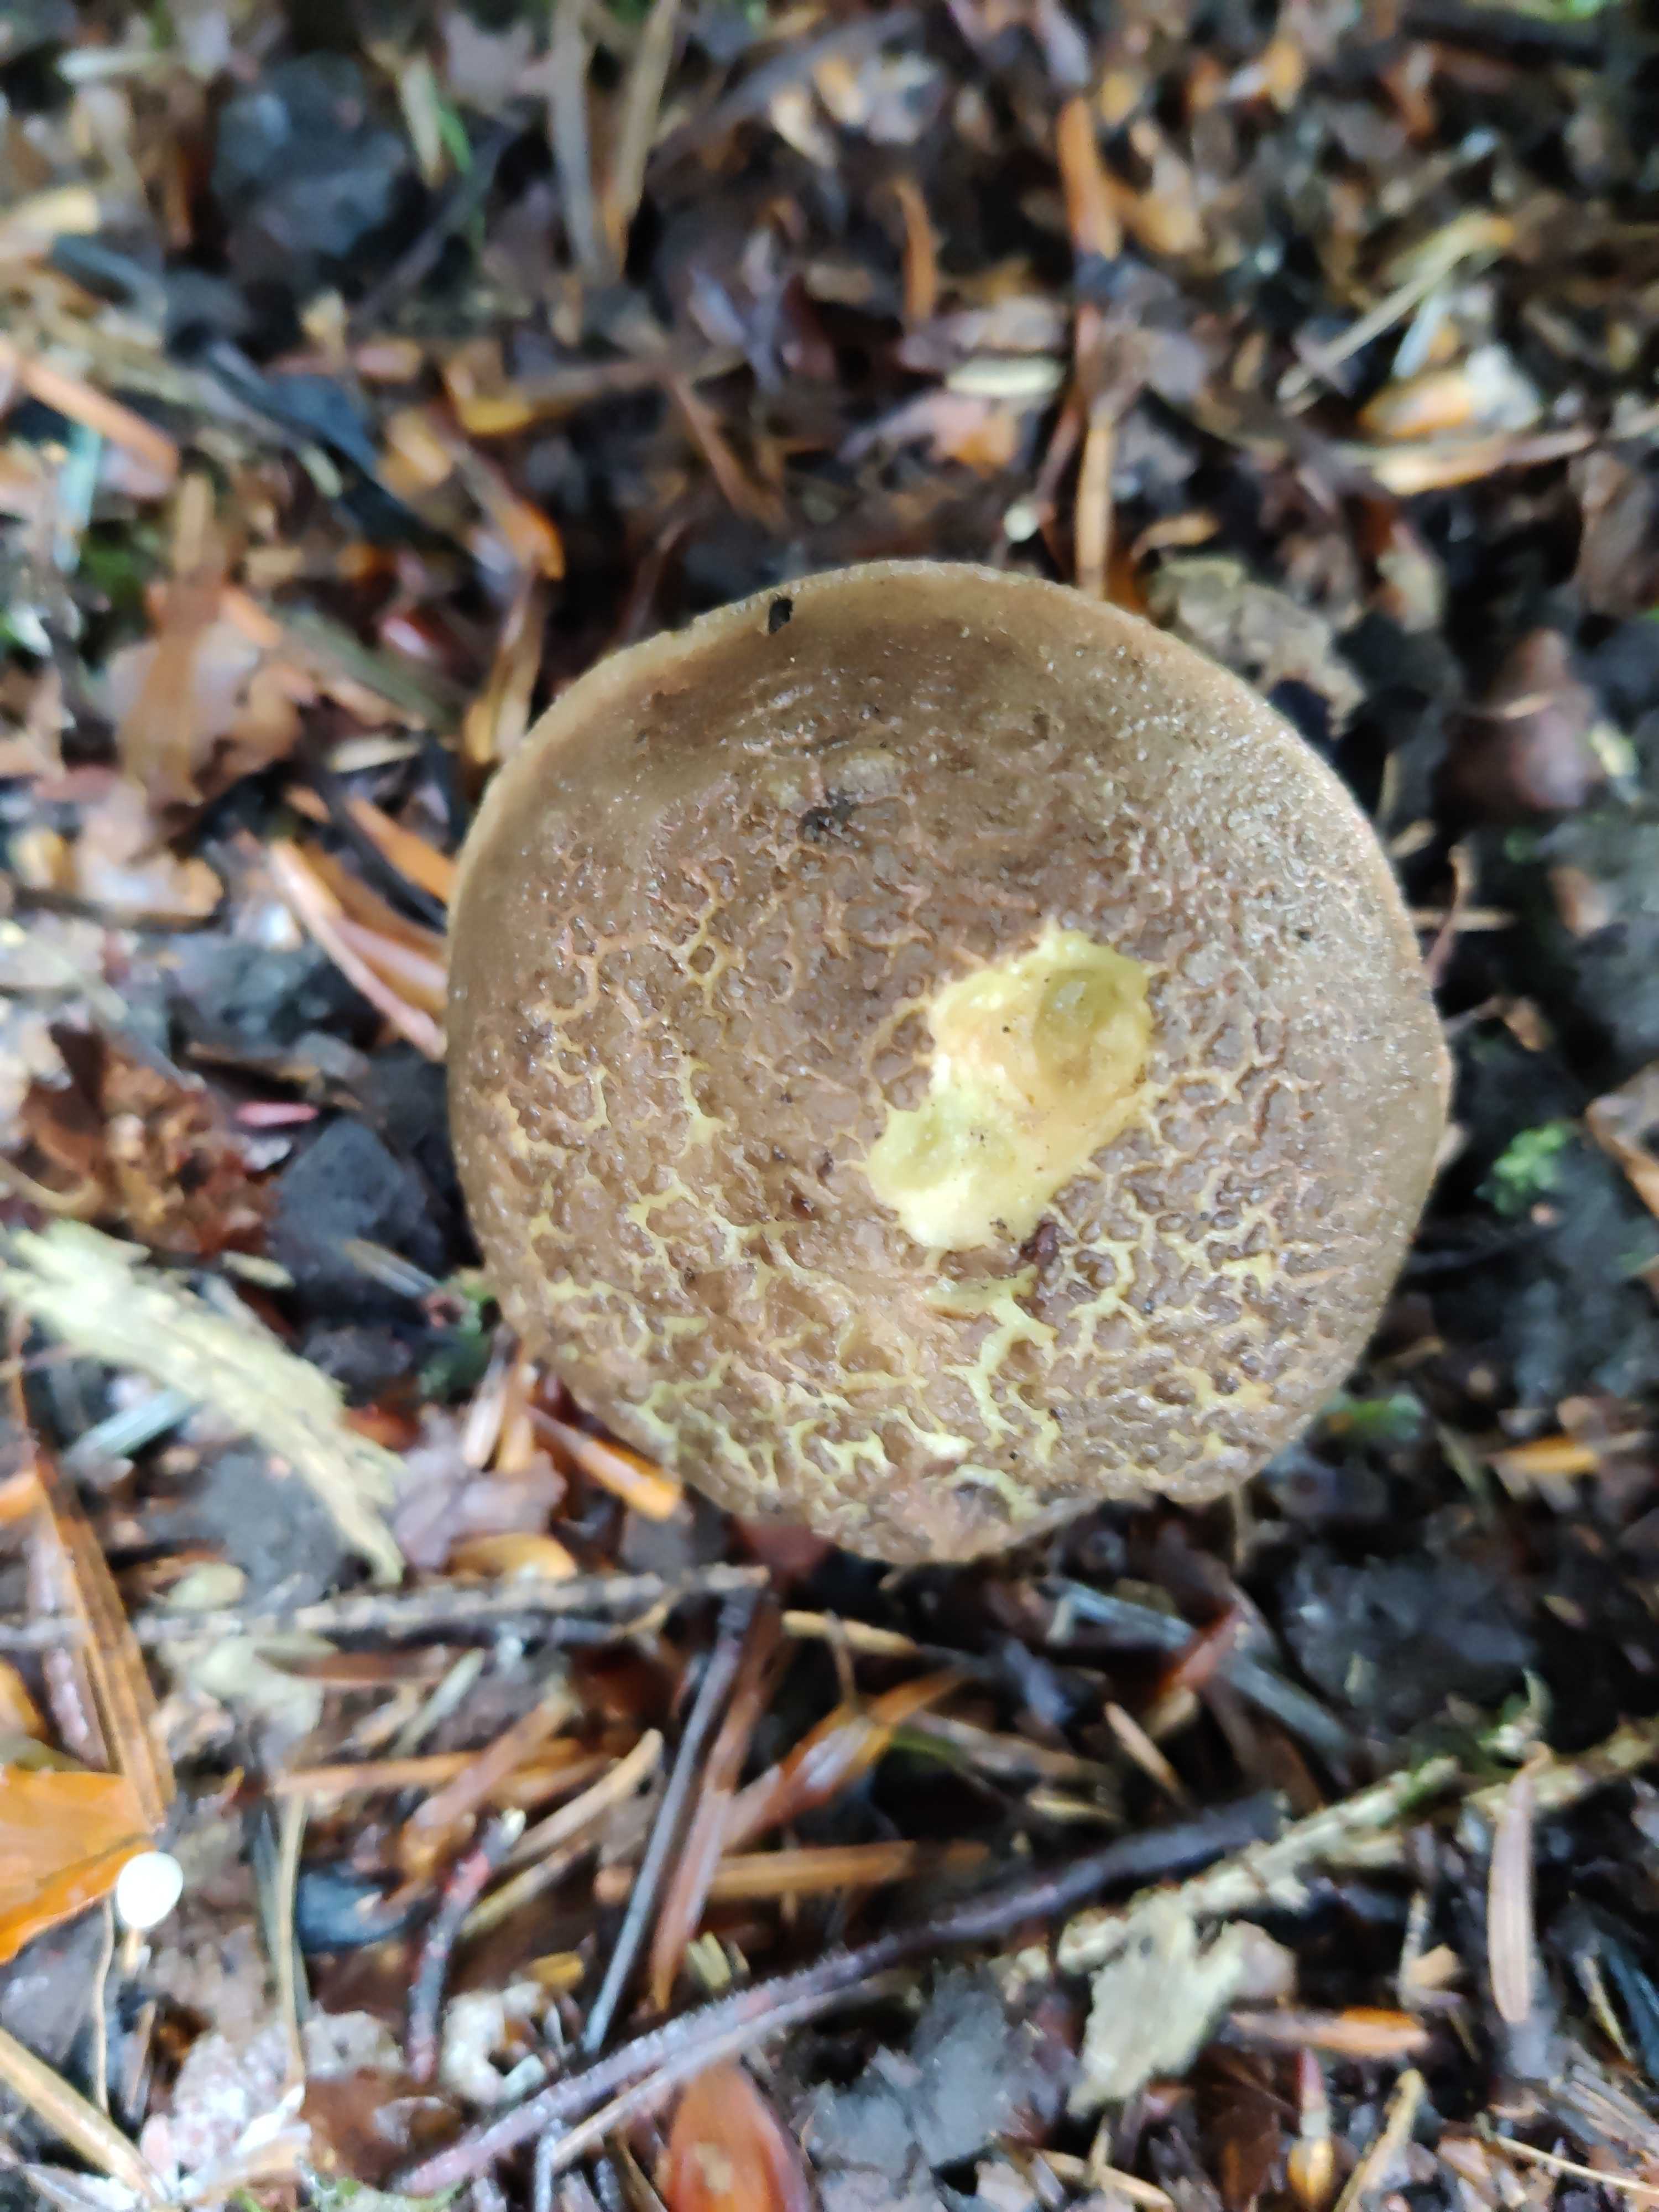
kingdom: Fungi
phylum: Basidiomycota
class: Agaricomycetes
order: Boletales
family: Boletaceae
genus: Xerocomellus
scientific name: Xerocomellus chrysenteron
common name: rødsprukken rørhat
